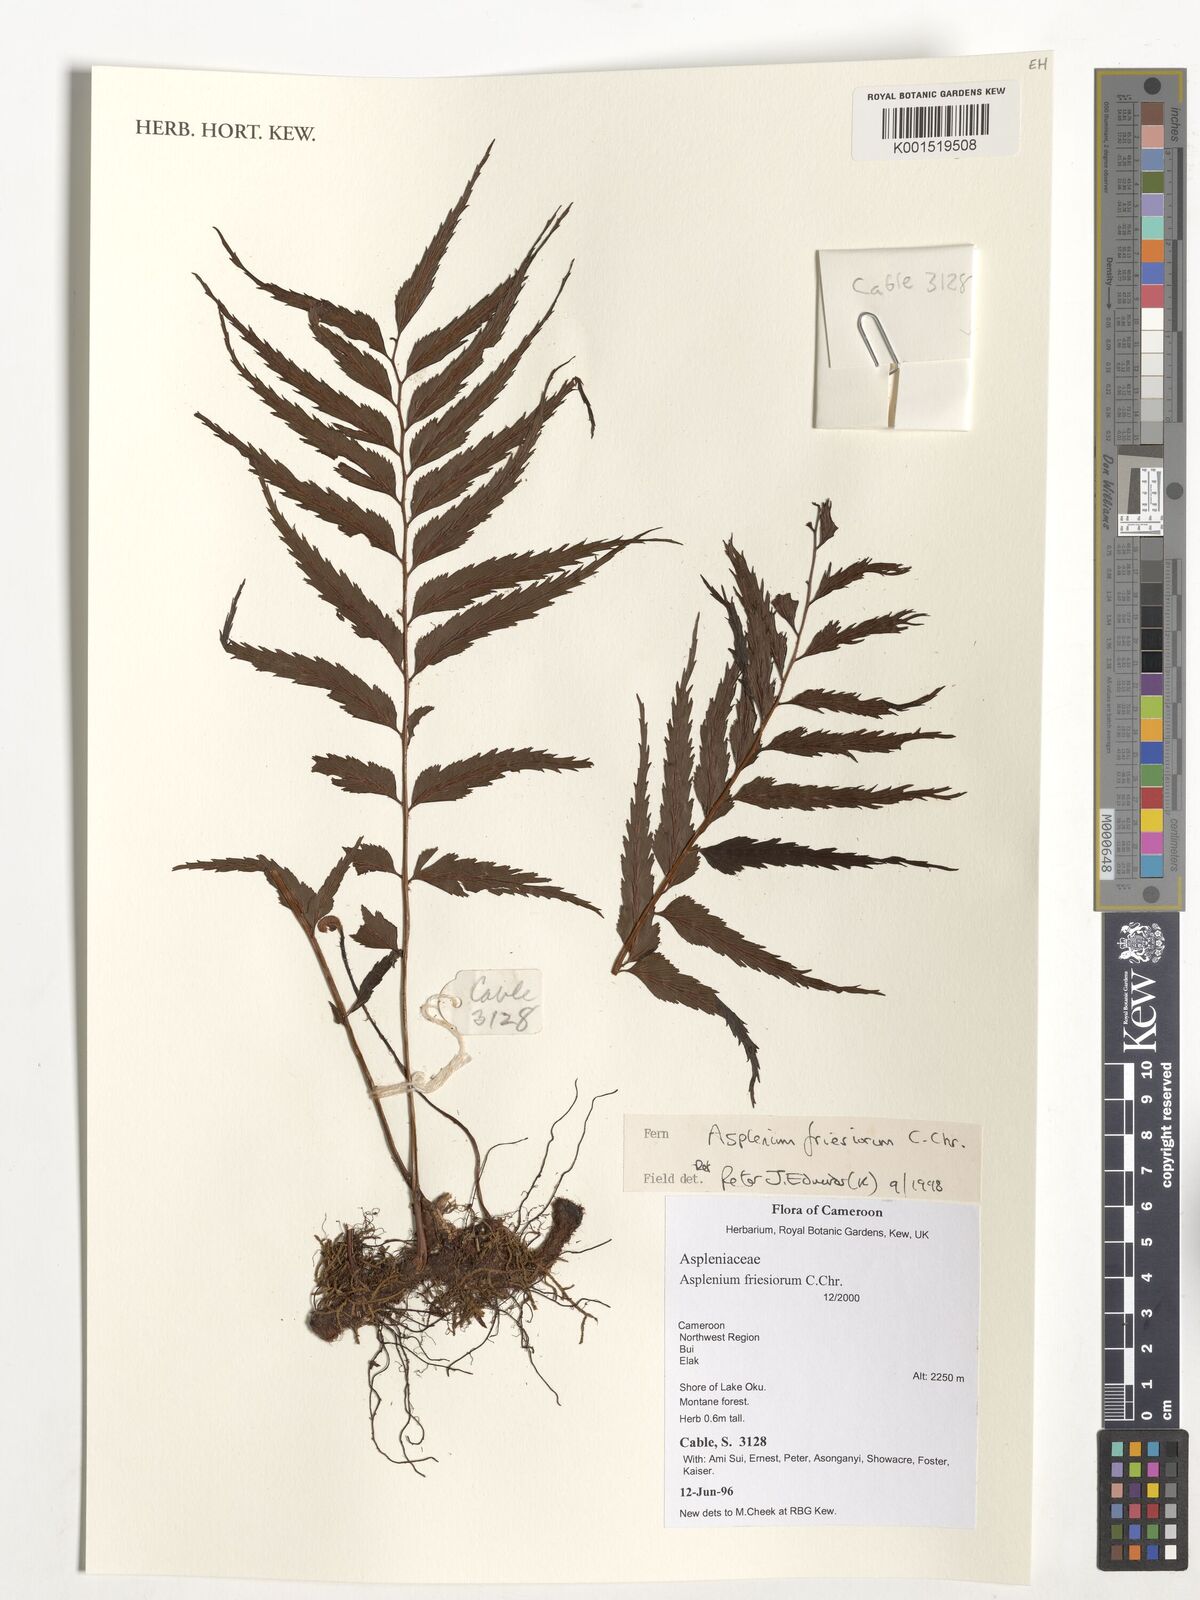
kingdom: Plantae
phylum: Tracheophyta
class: Polypodiopsida
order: Polypodiales
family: Aspleniaceae
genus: Asplenium
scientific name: Asplenium gueinzianum
